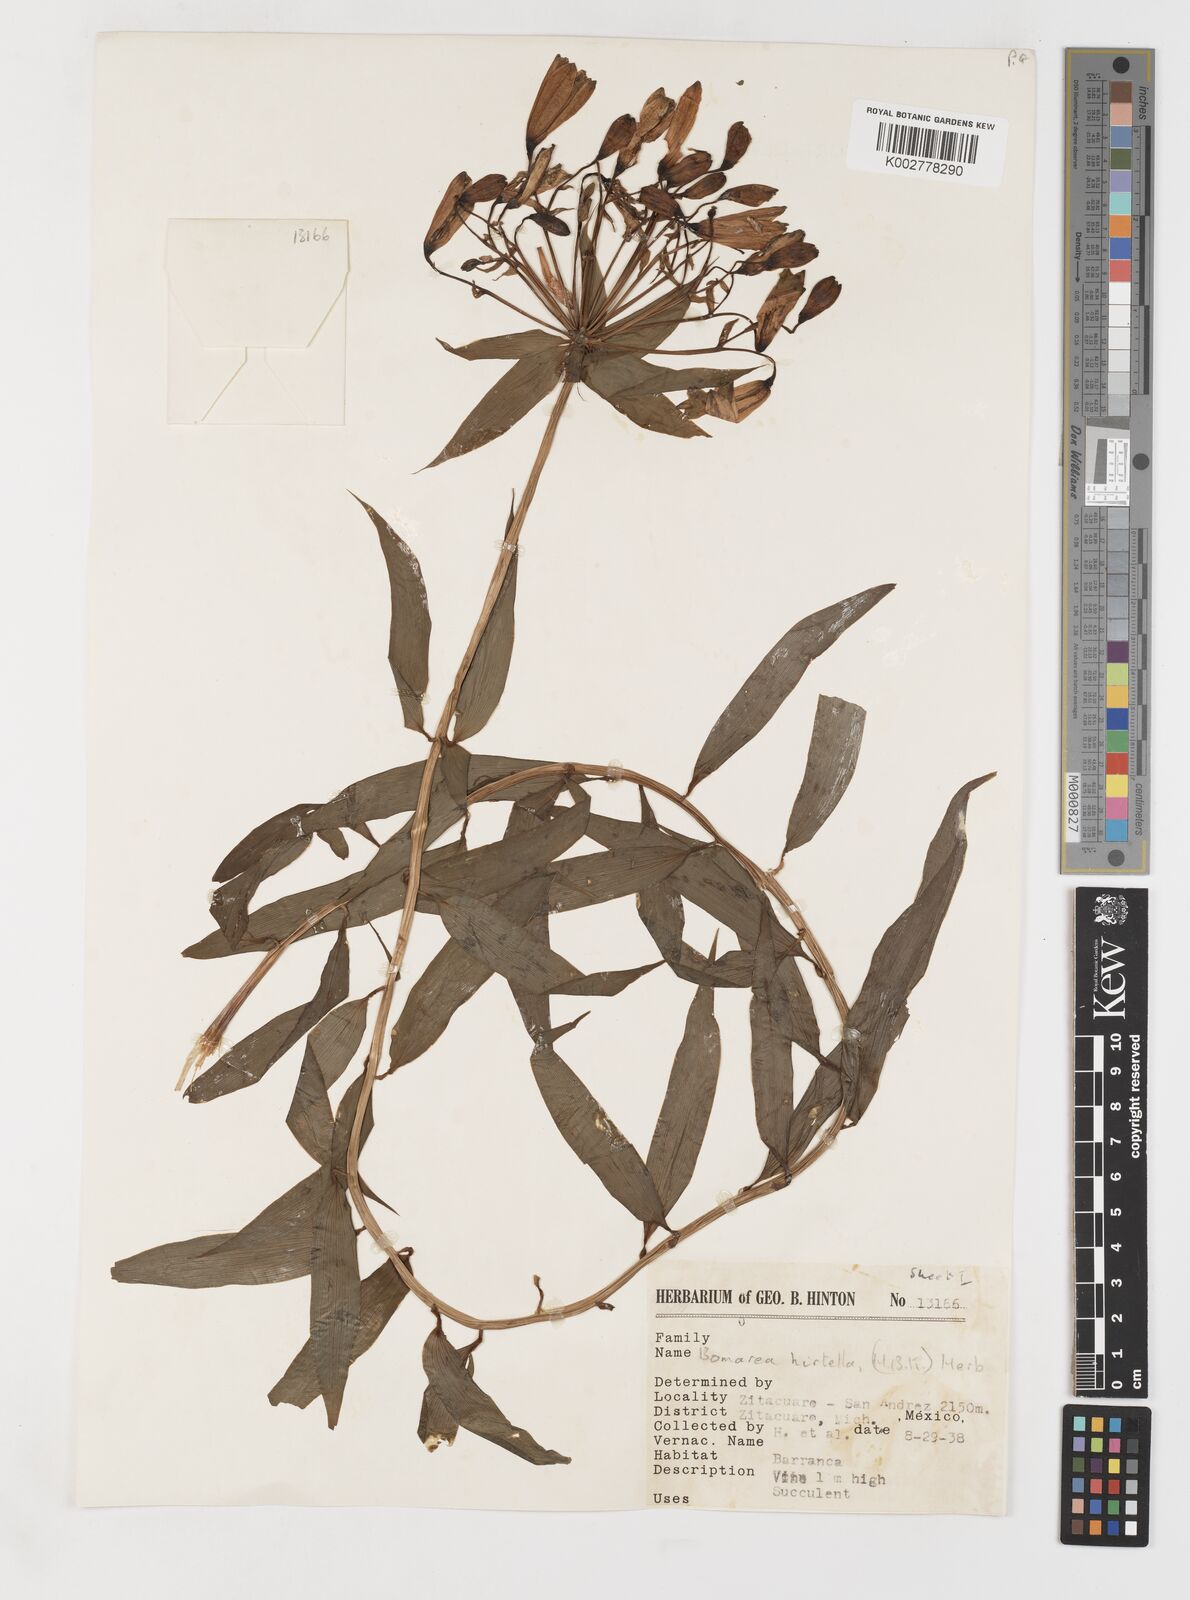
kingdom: Plantae
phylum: Tracheophyta
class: Liliopsida
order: Liliales
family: Alstroemeriaceae
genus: Bomarea
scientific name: Bomarea edulis
